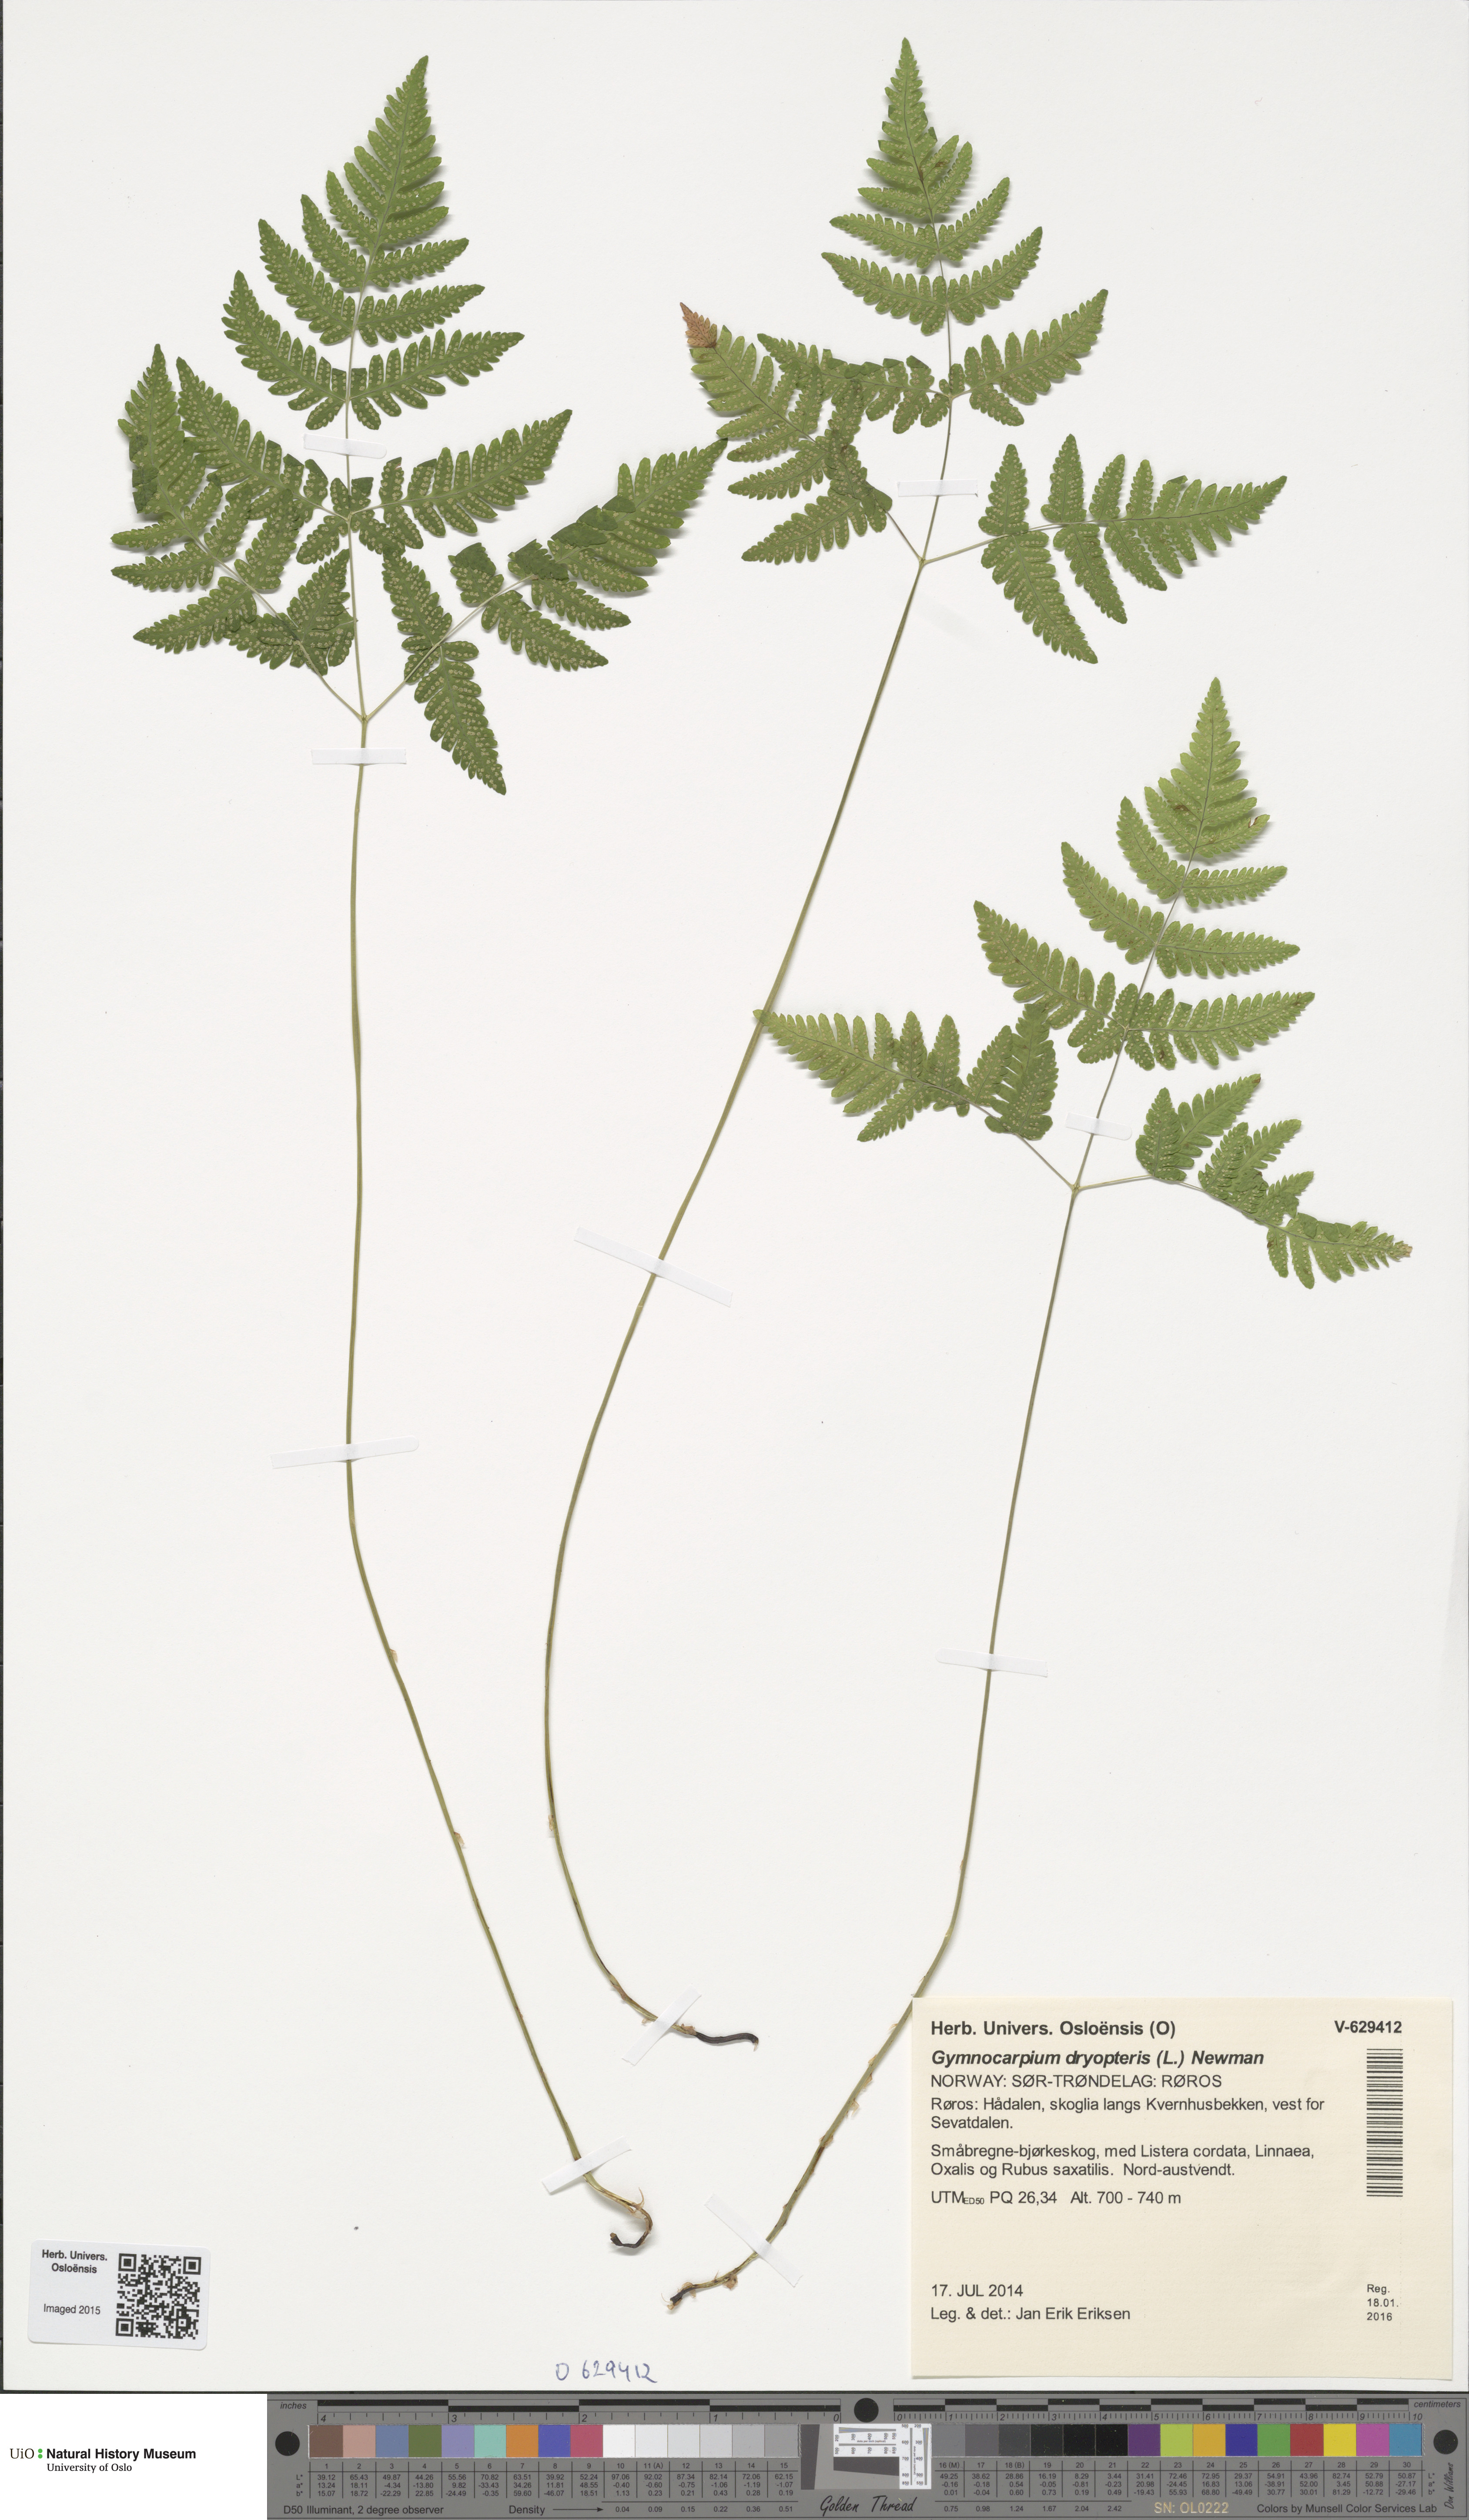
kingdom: Plantae
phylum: Tracheophyta
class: Polypodiopsida
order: Polypodiales
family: Cystopteridaceae
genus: Gymnocarpium
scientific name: Gymnocarpium dryopteris
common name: Oak fern
